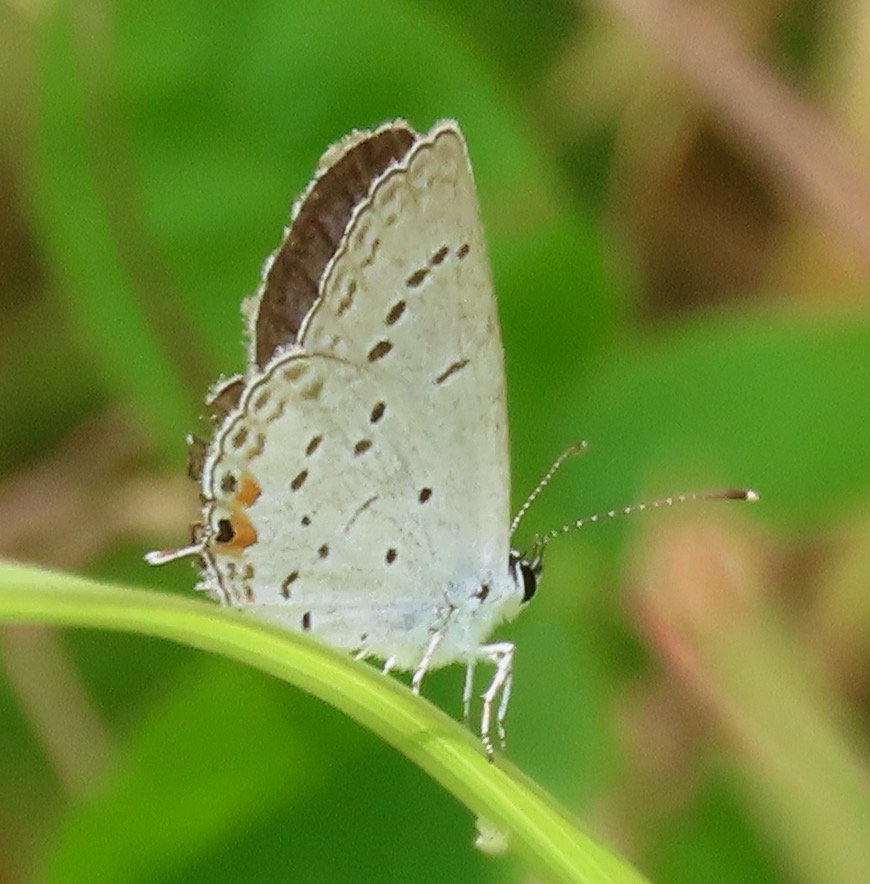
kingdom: Animalia
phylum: Arthropoda
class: Insecta
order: Lepidoptera
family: Lycaenidae
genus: Elkalyce
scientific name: Elkalyce comyntas
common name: Eastern Tailed-Blue
